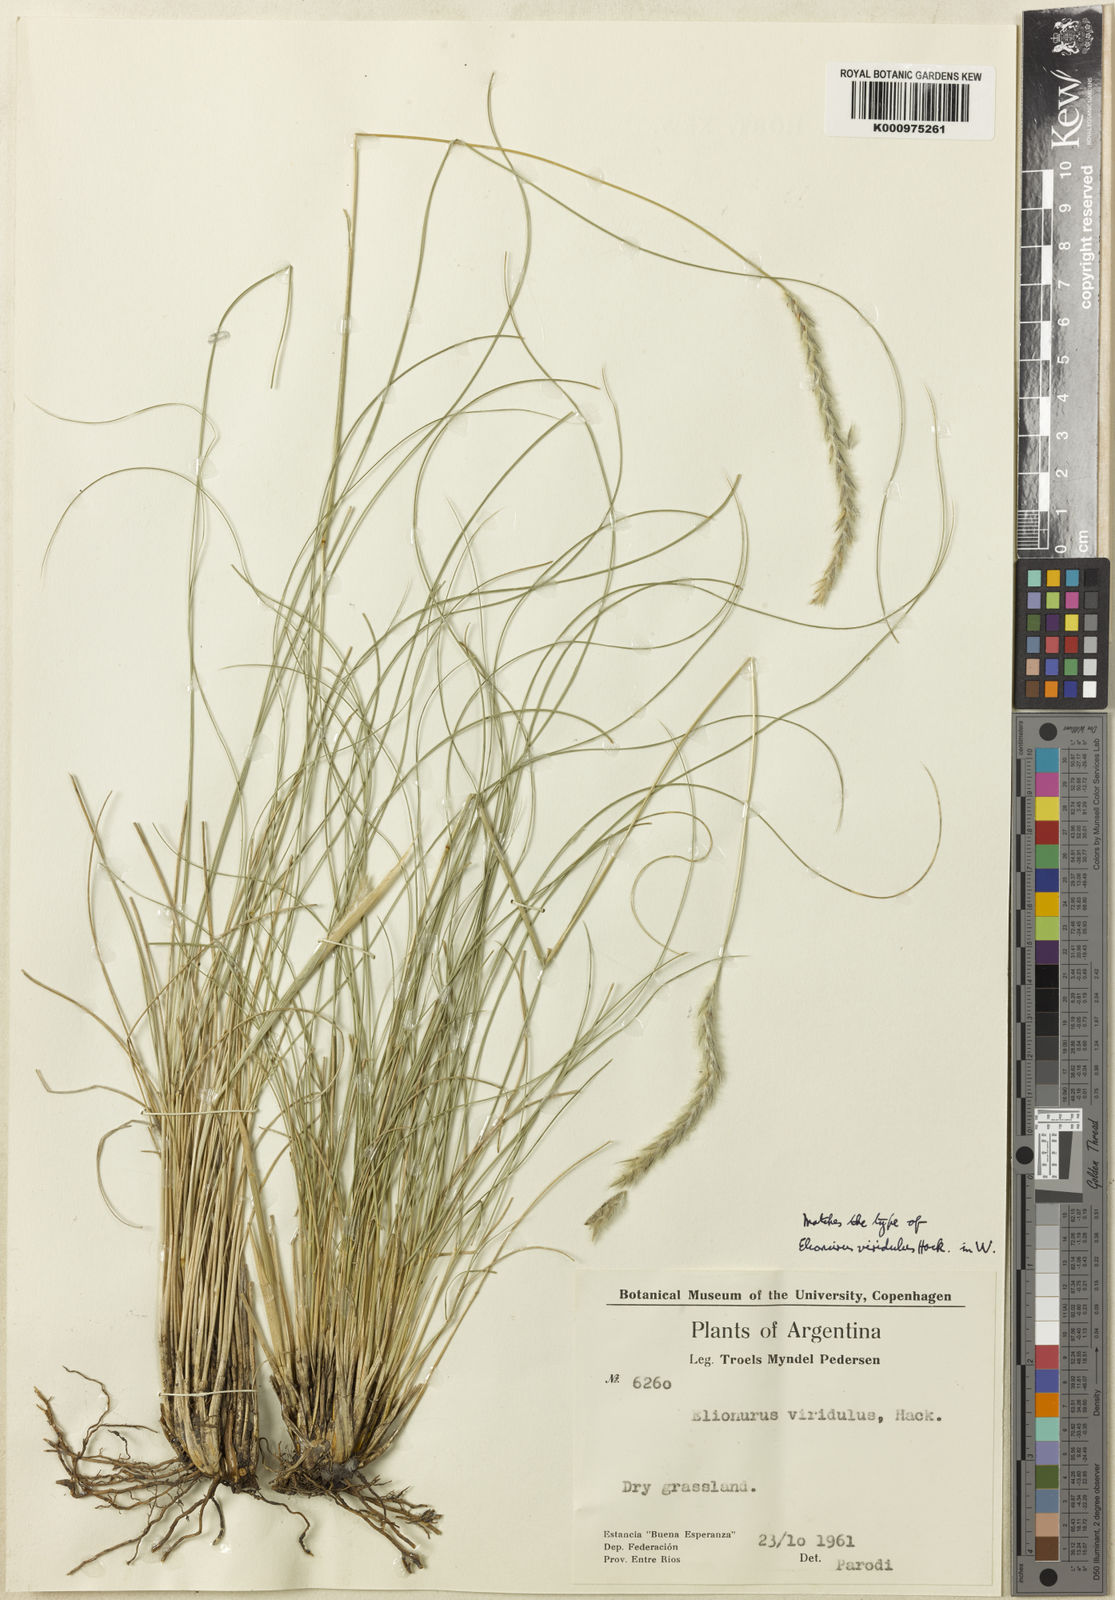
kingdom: Plantae
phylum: Tracheophyta
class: Liliopsida
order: Poales
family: Poaceae
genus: Elionurus
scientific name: Elionurus muticus
